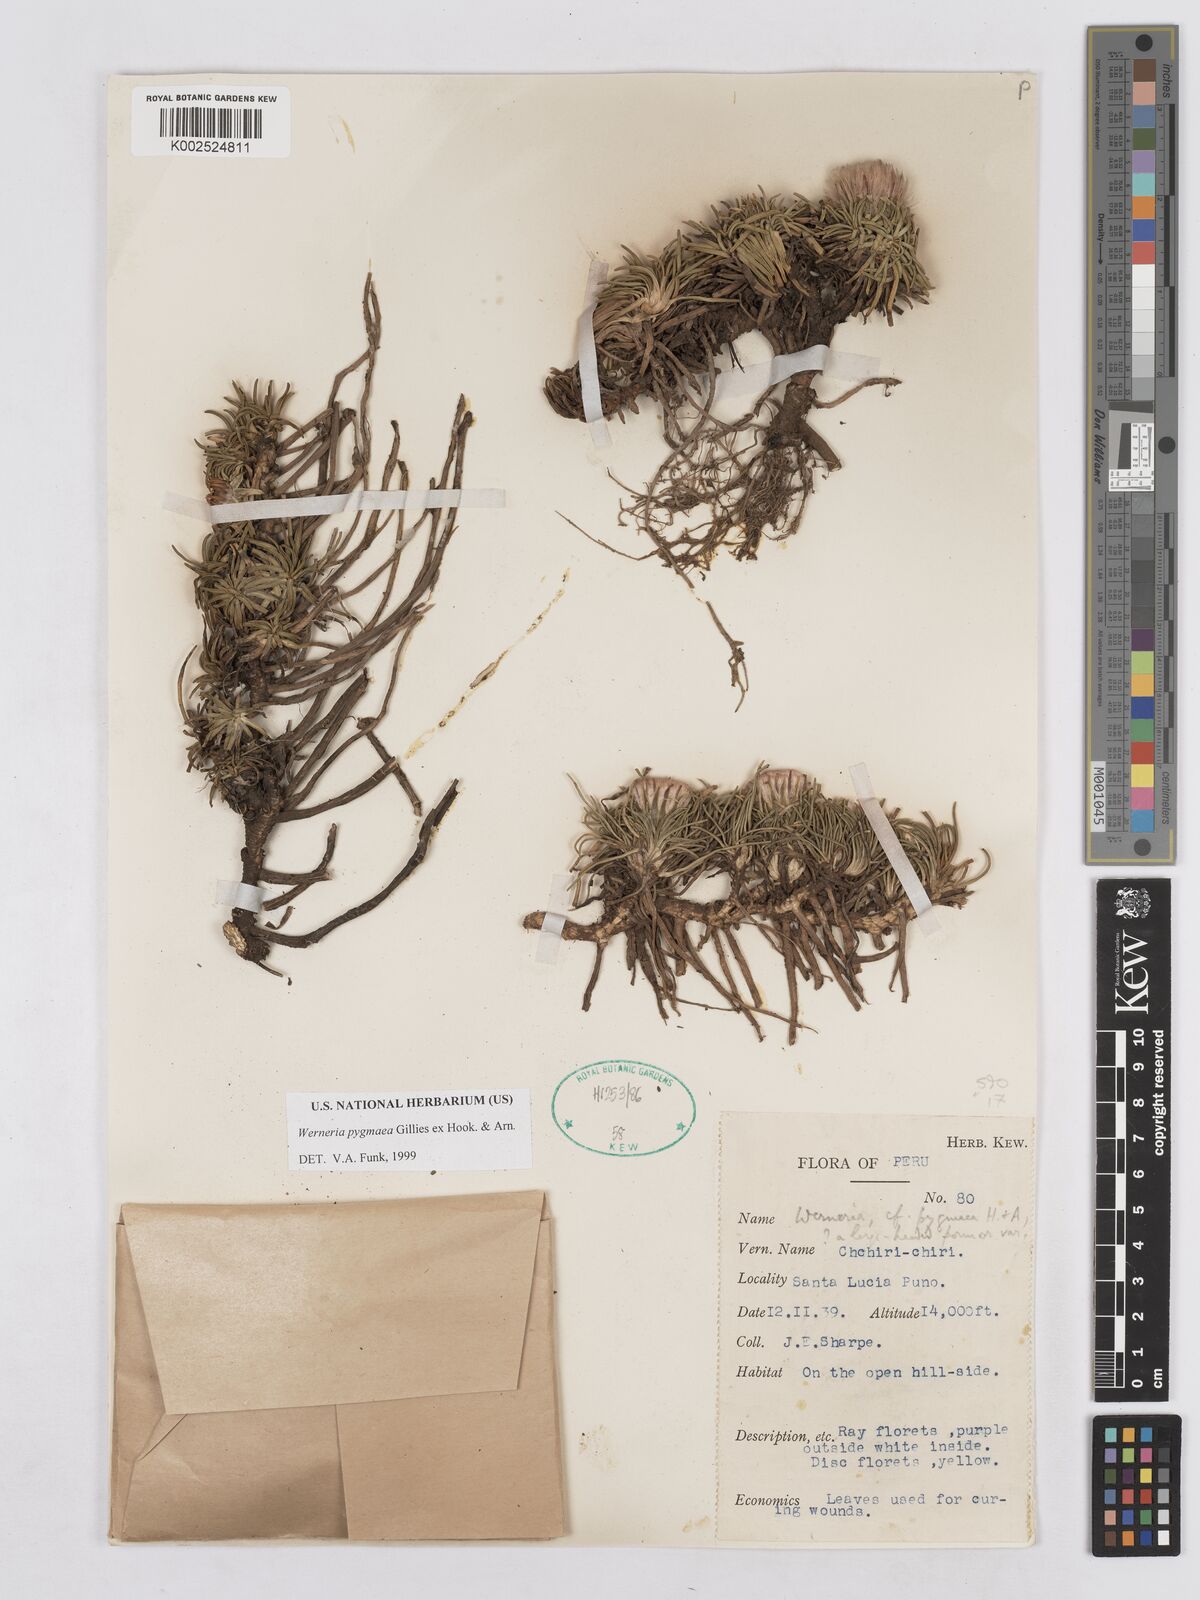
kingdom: Plantae
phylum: Tracheophyta
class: Magnoliopsida
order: Asterales
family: Asteraceae
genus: Rockhausenia
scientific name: Rockhausenia pygmaea
